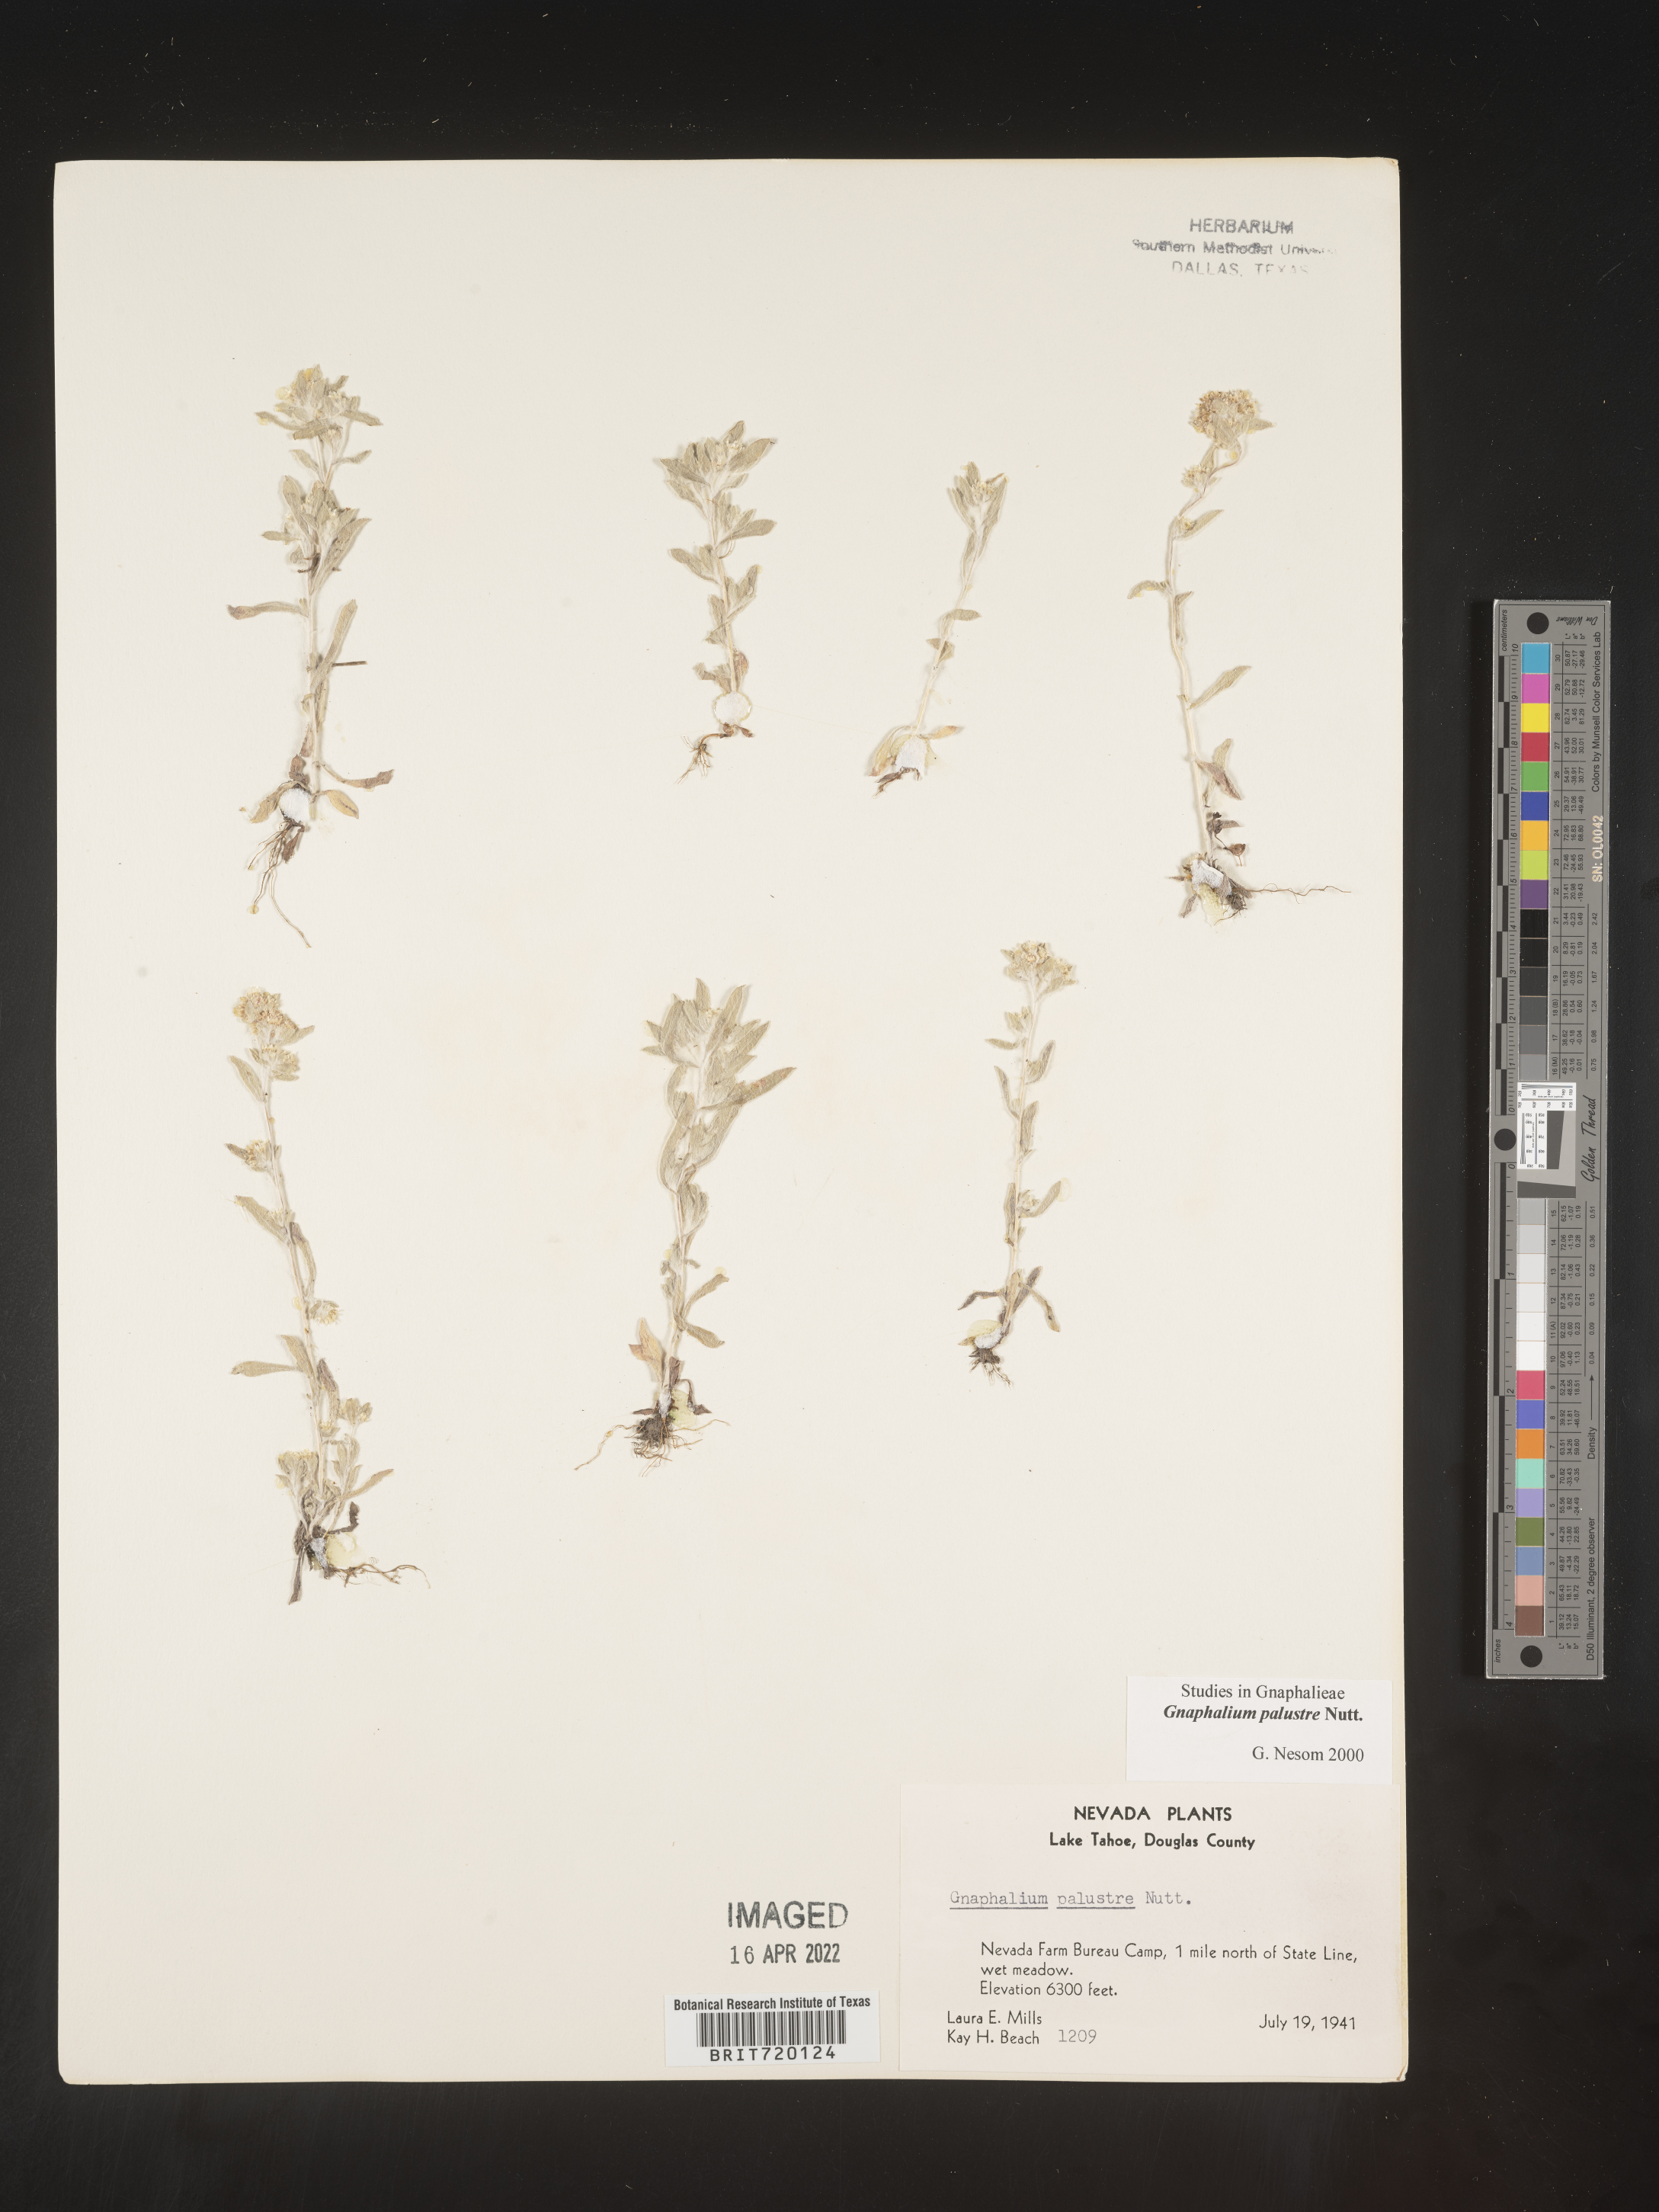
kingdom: Plantae
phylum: Tracheophyta
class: Magnoliopsida
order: Asterales
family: Asteraceae
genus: Gnaphalium
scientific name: Gnaphalium palustre
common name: Western marsh cudweed
